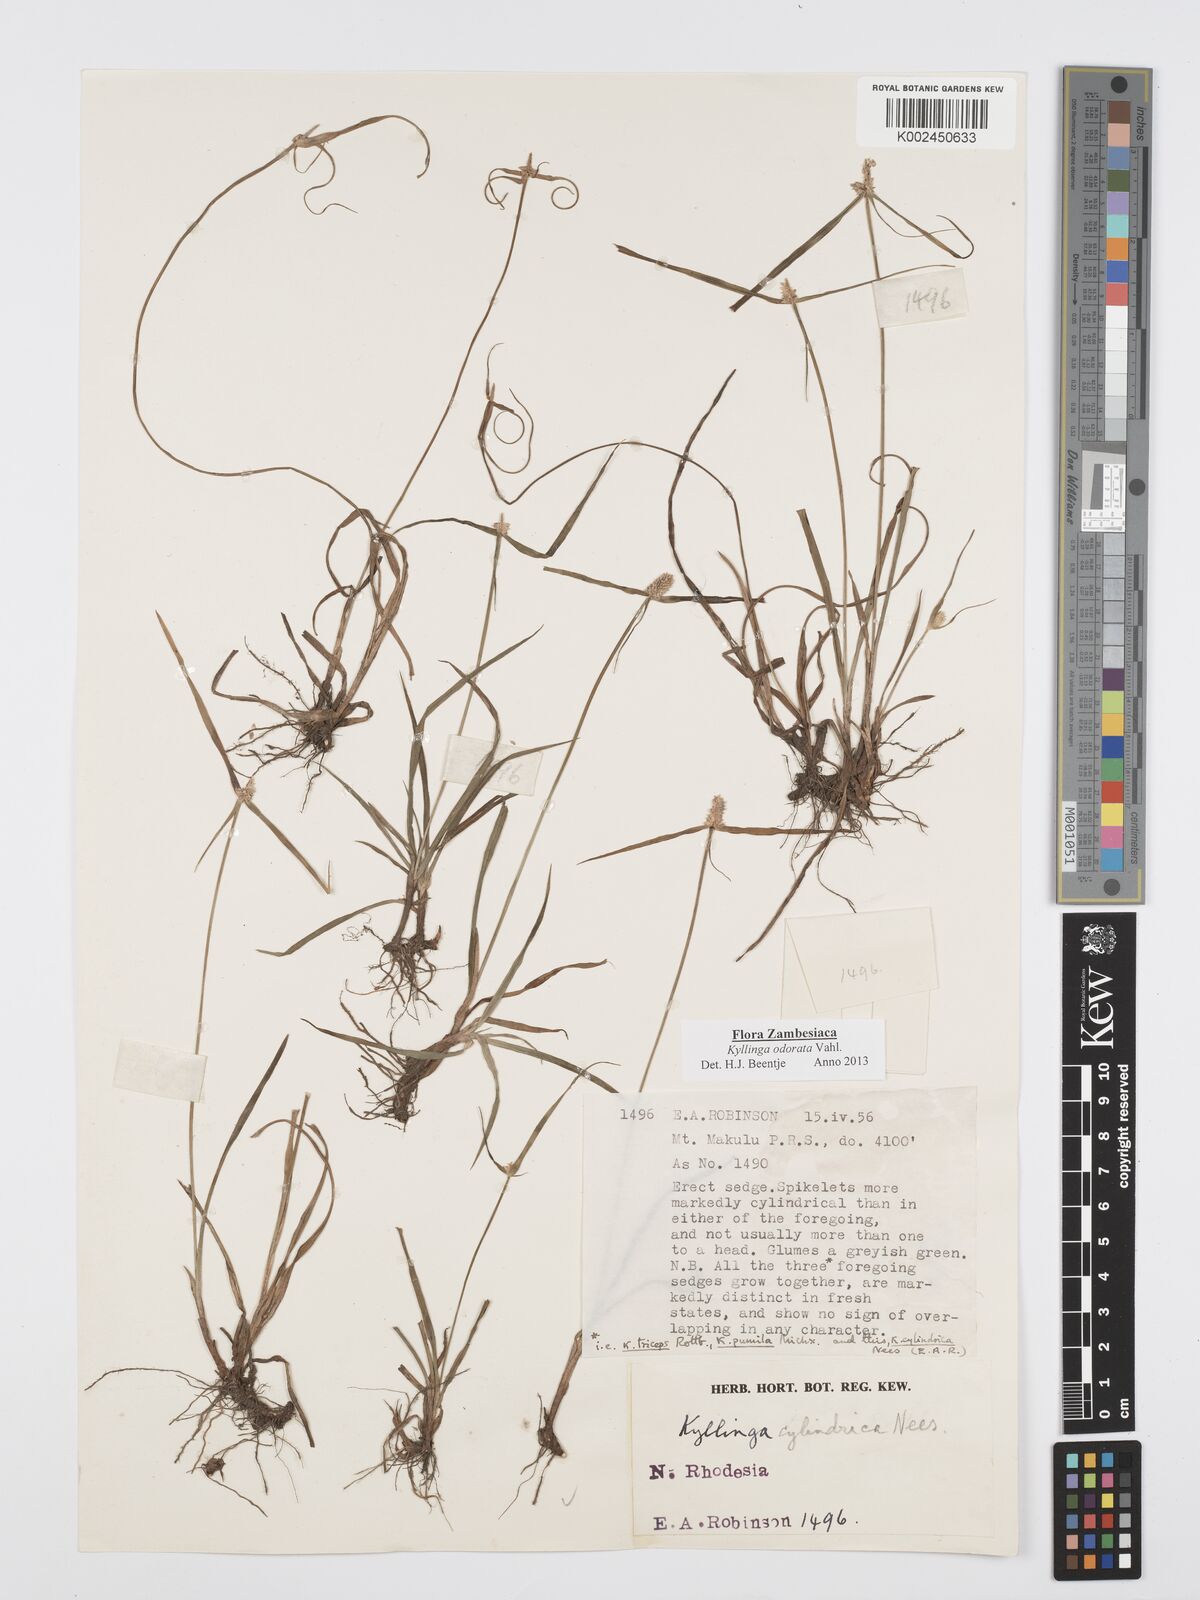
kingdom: Plantae
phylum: Tracheophyta
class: Liliopsida
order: Poales
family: Cyperaceae
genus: Cyperus
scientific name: Cyperus
